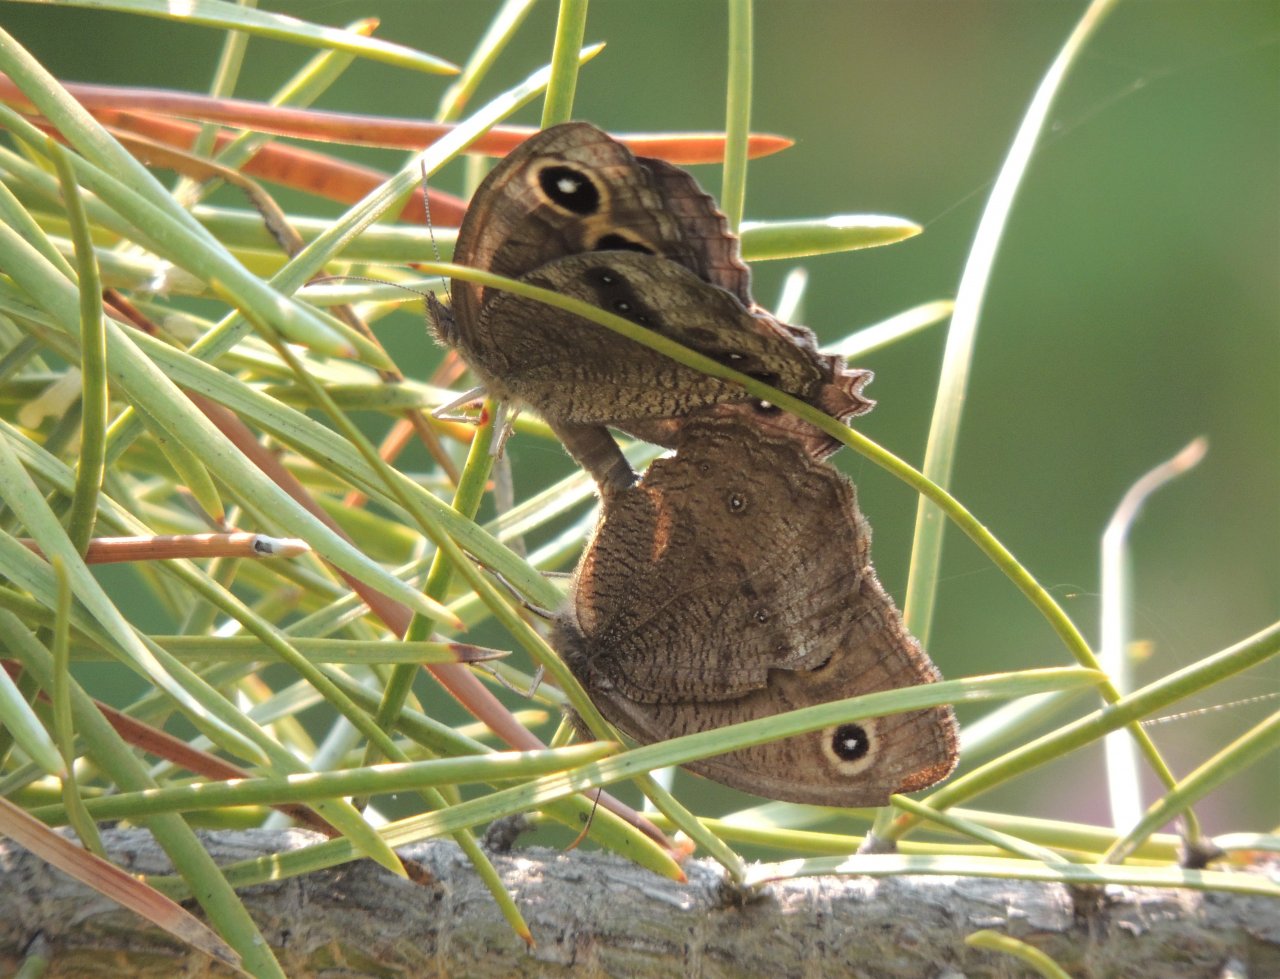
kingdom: Animalia
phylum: Arthropoda
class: Insecta
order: Lepidoptera
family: Nymphalidae
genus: Cercyonis
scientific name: Cercyonis pegala
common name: Common Wood-Nymph
